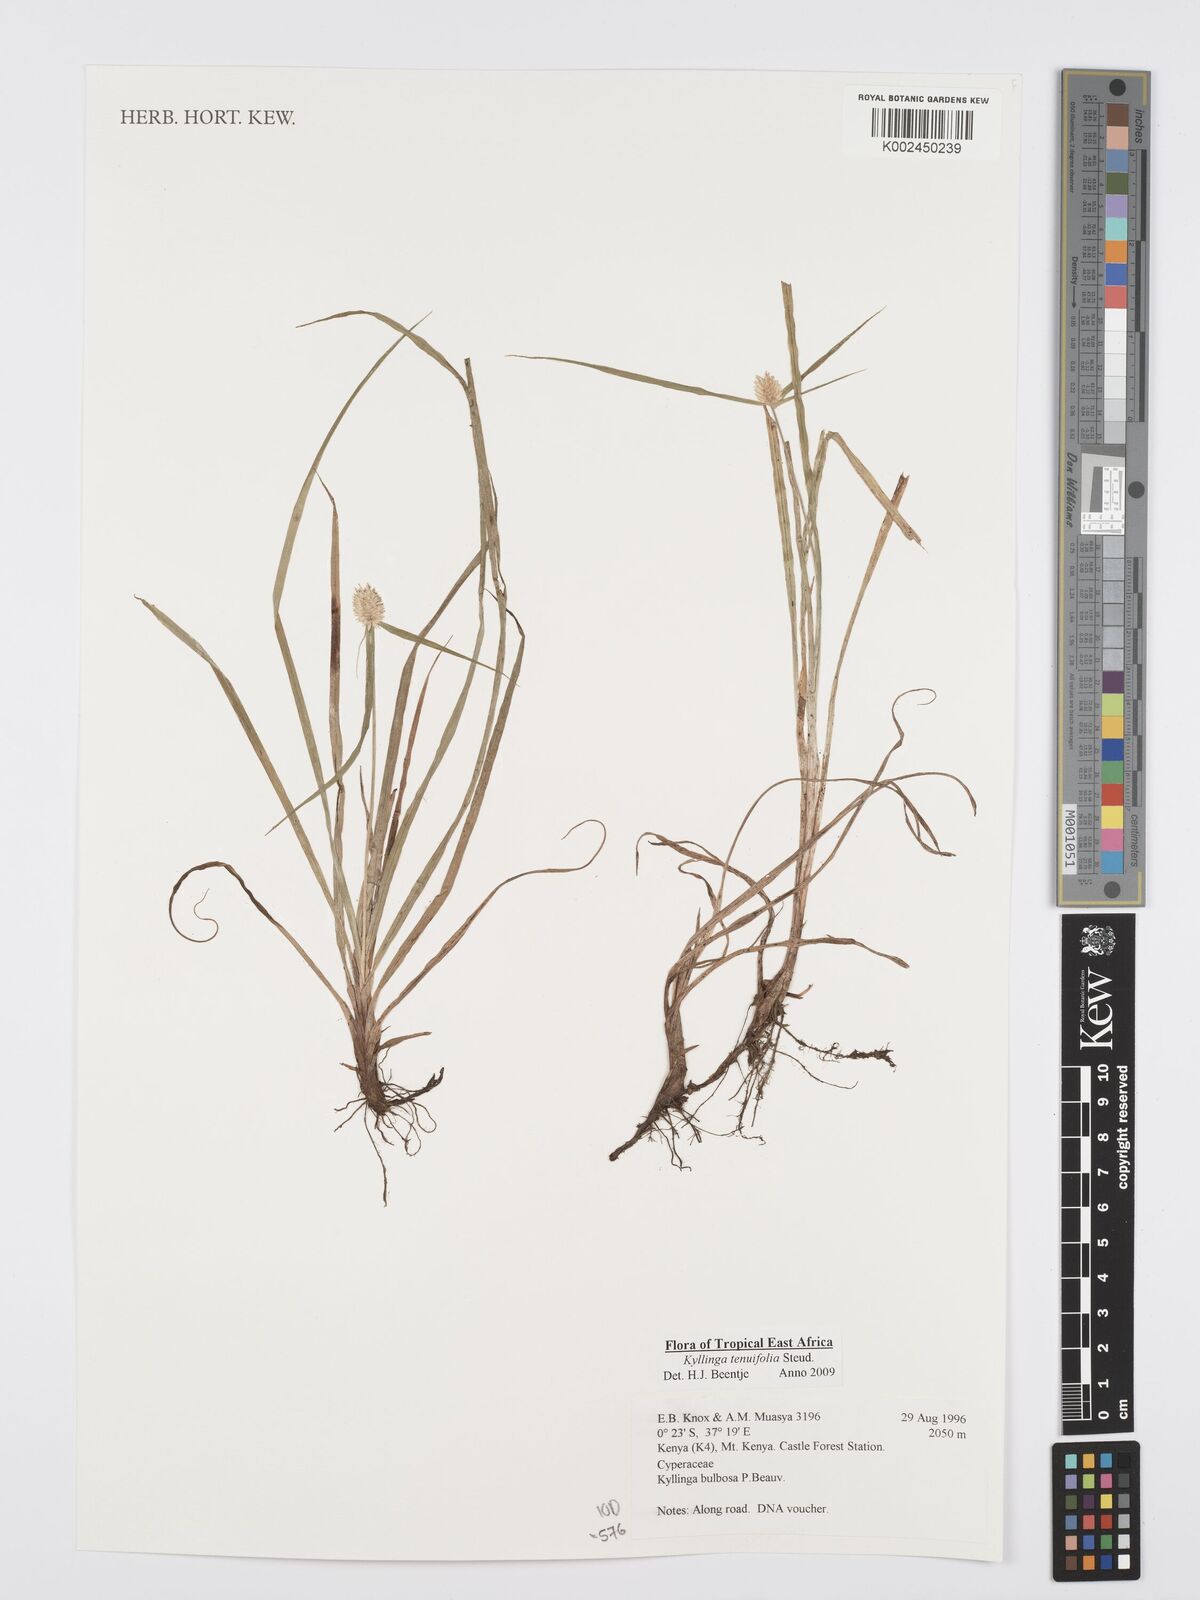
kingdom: Plantae
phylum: Tracheophyta
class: Liliopsida
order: Poales
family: Cyperaceae
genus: Cyperus
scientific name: Cyperus
